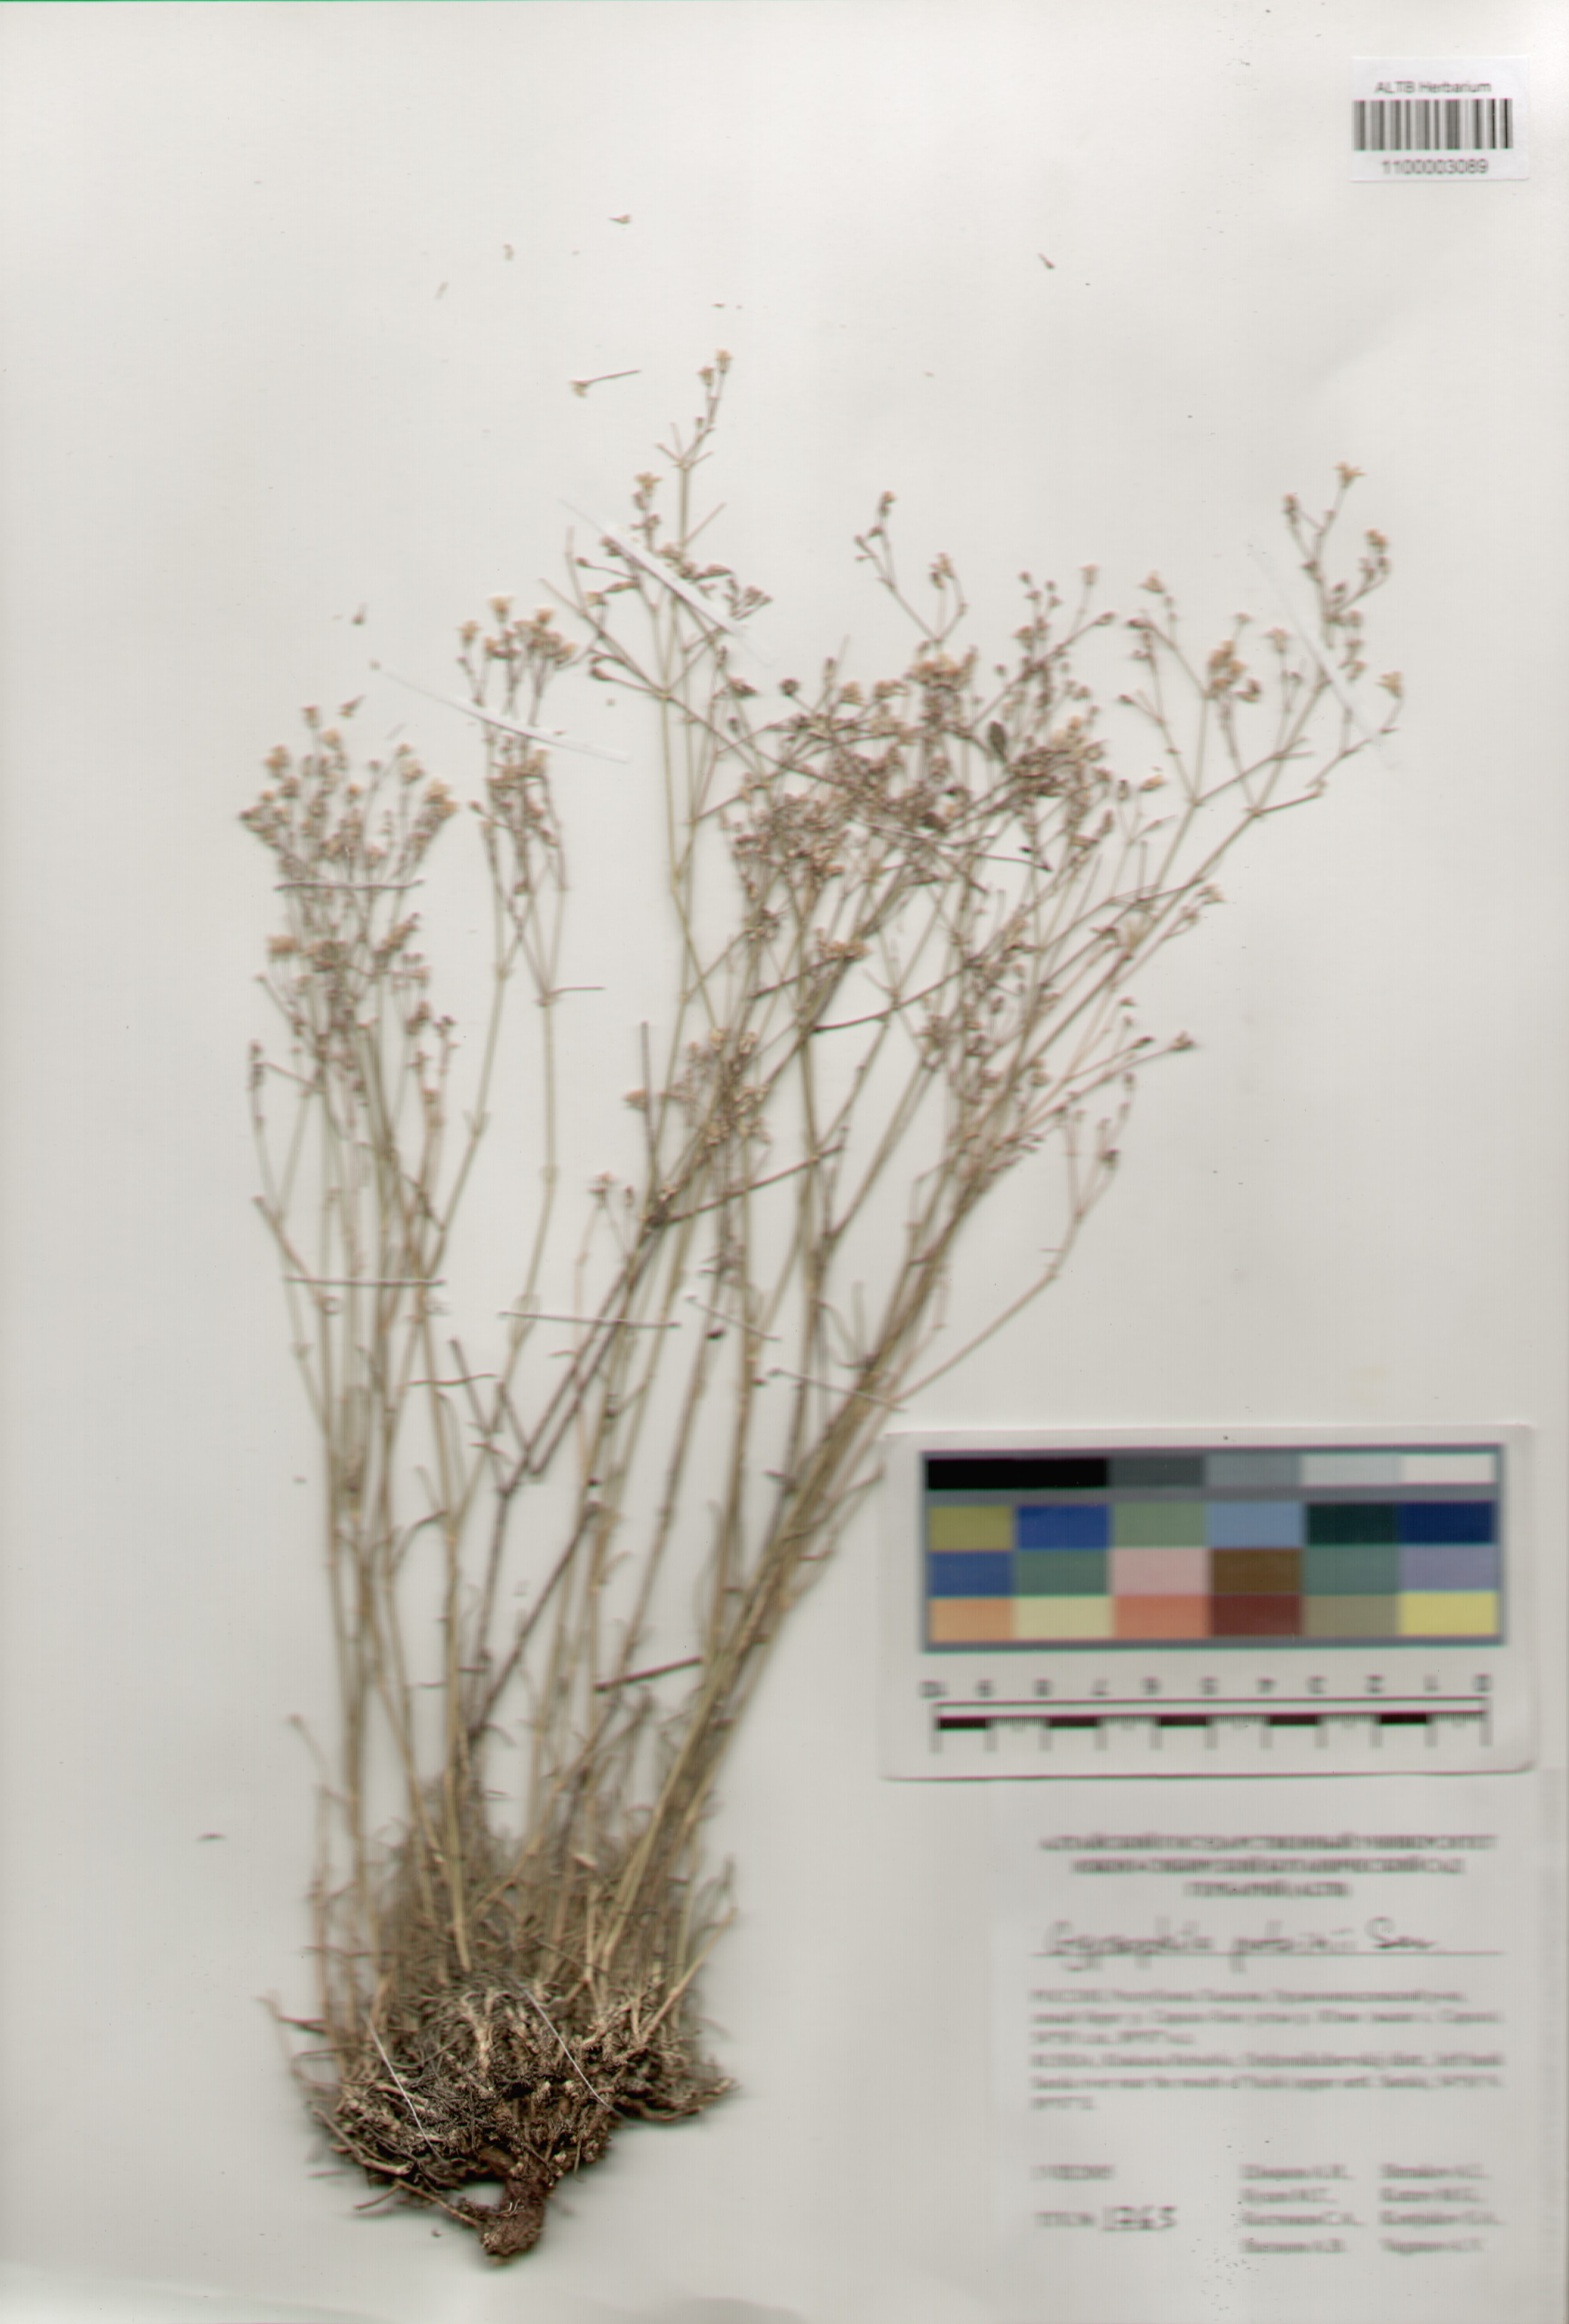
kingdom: Plantae
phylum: Tracheophyta
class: Magnoliopsida
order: Caryophyllales
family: Caryophyllaceae
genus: Gypsophila
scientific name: Gypsophila patrinii
